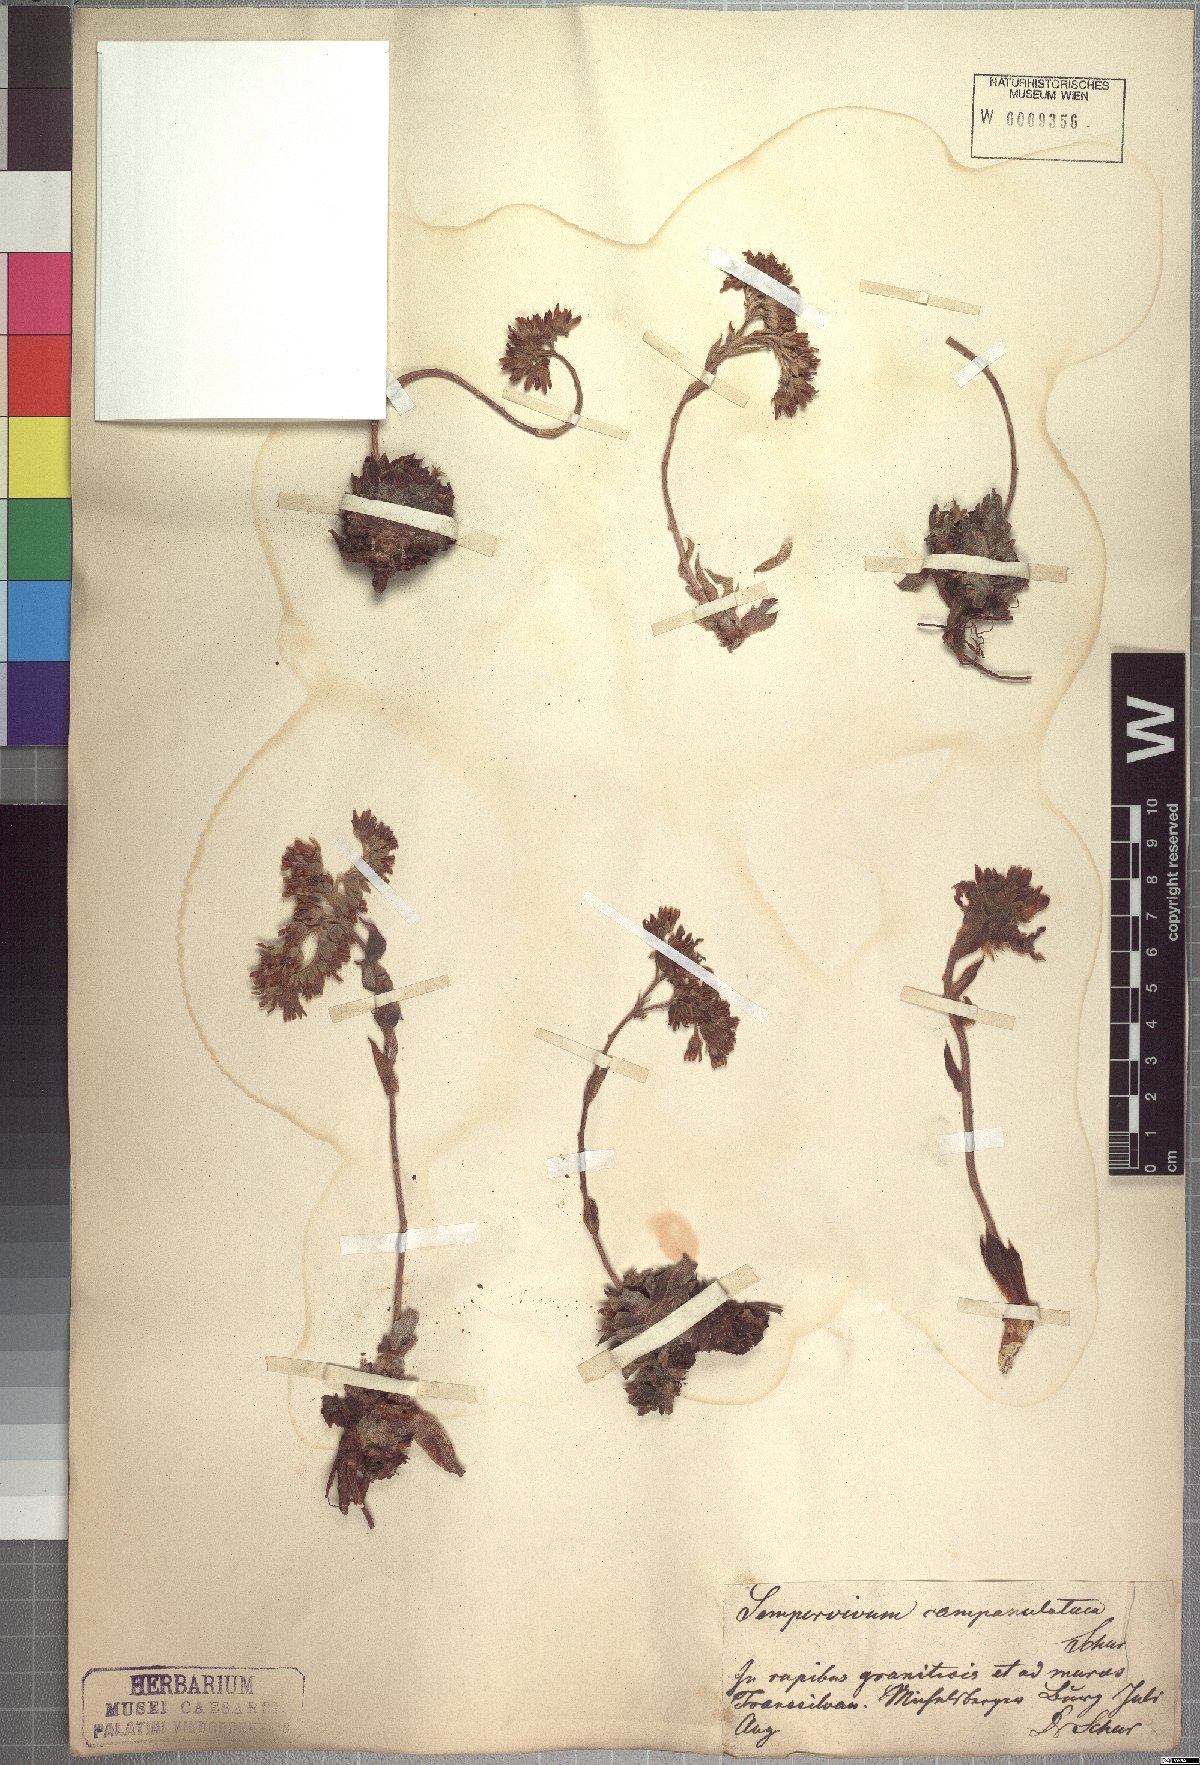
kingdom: Plantae
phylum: Tracheophyta
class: Magnoliopsida
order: Saxifragales
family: Crassulaceae
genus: Sempervivum
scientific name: Sempervivum
